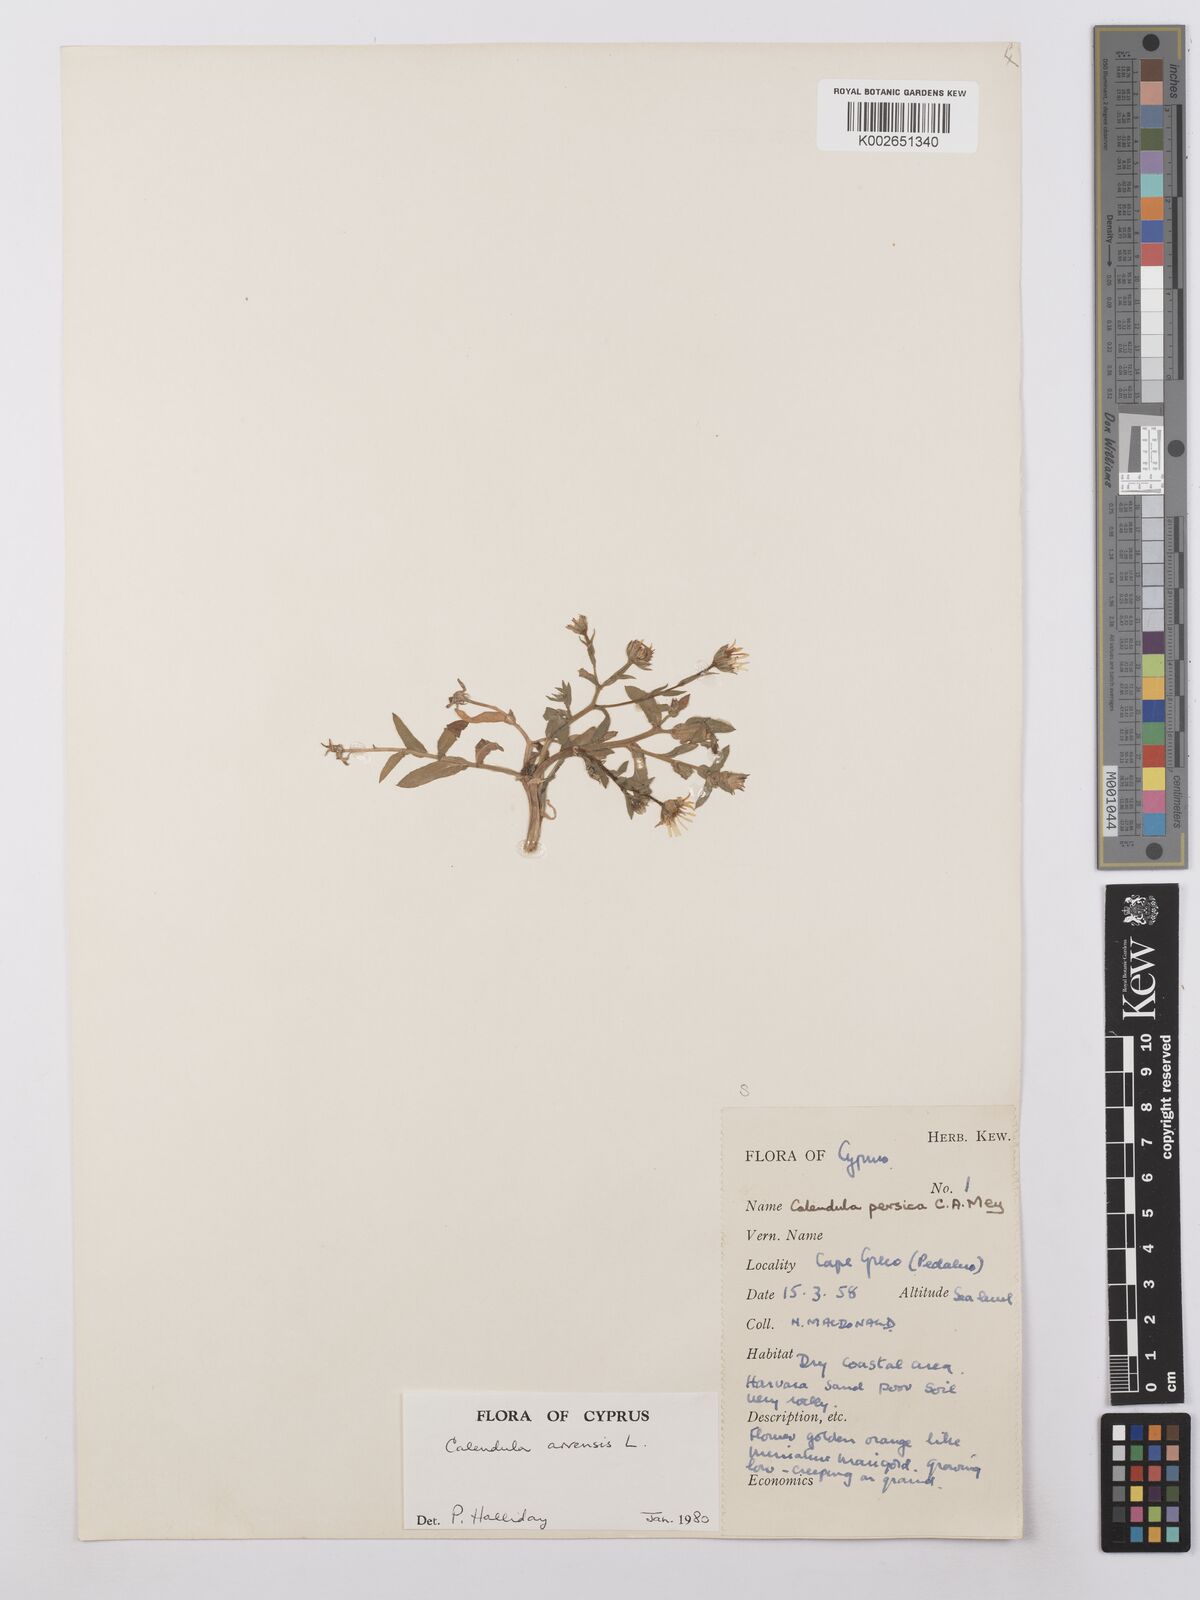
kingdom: Plantae
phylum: Tracheophyta
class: Magnoliopsida
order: Asterales
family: Asteraceae
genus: Calendula
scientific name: Calendula arvensis
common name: Field marigold
